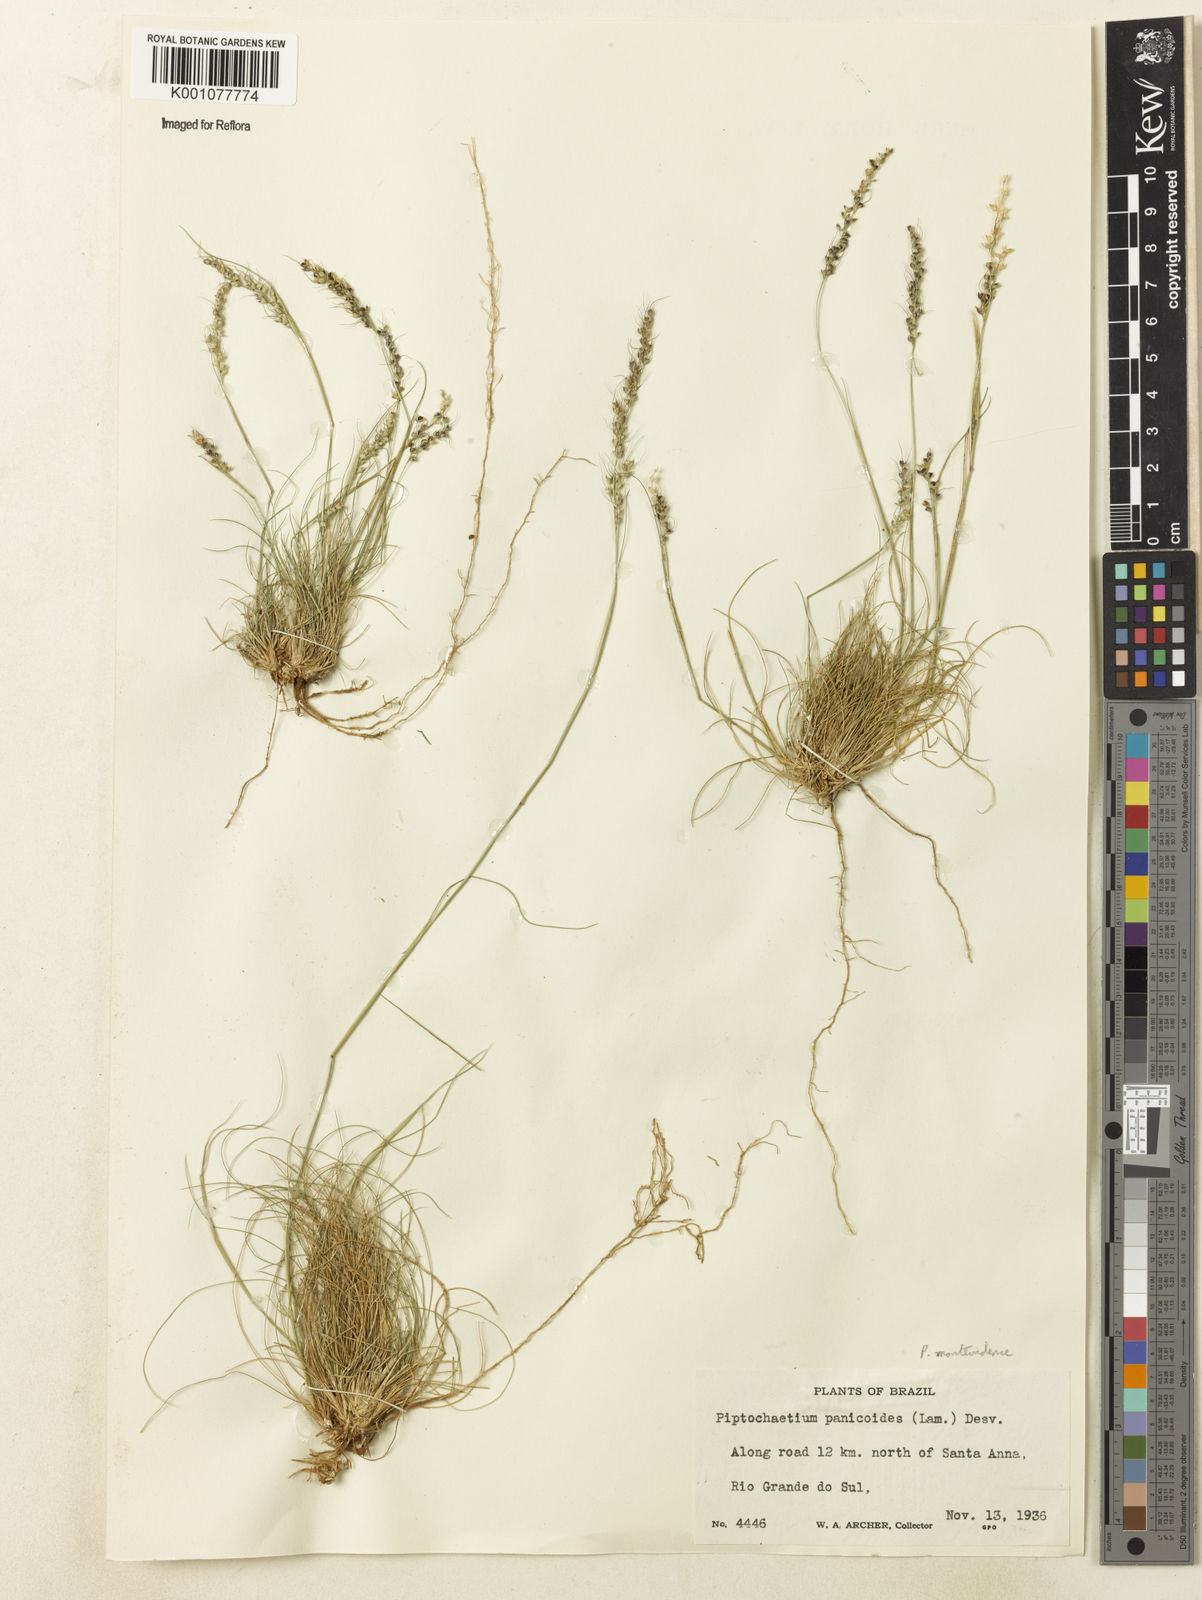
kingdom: Plantae
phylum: Tracheophyta
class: Liliopsida
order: Poales
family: Poaceae
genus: Piptochaetium
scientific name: Piptochaetium montevidense
